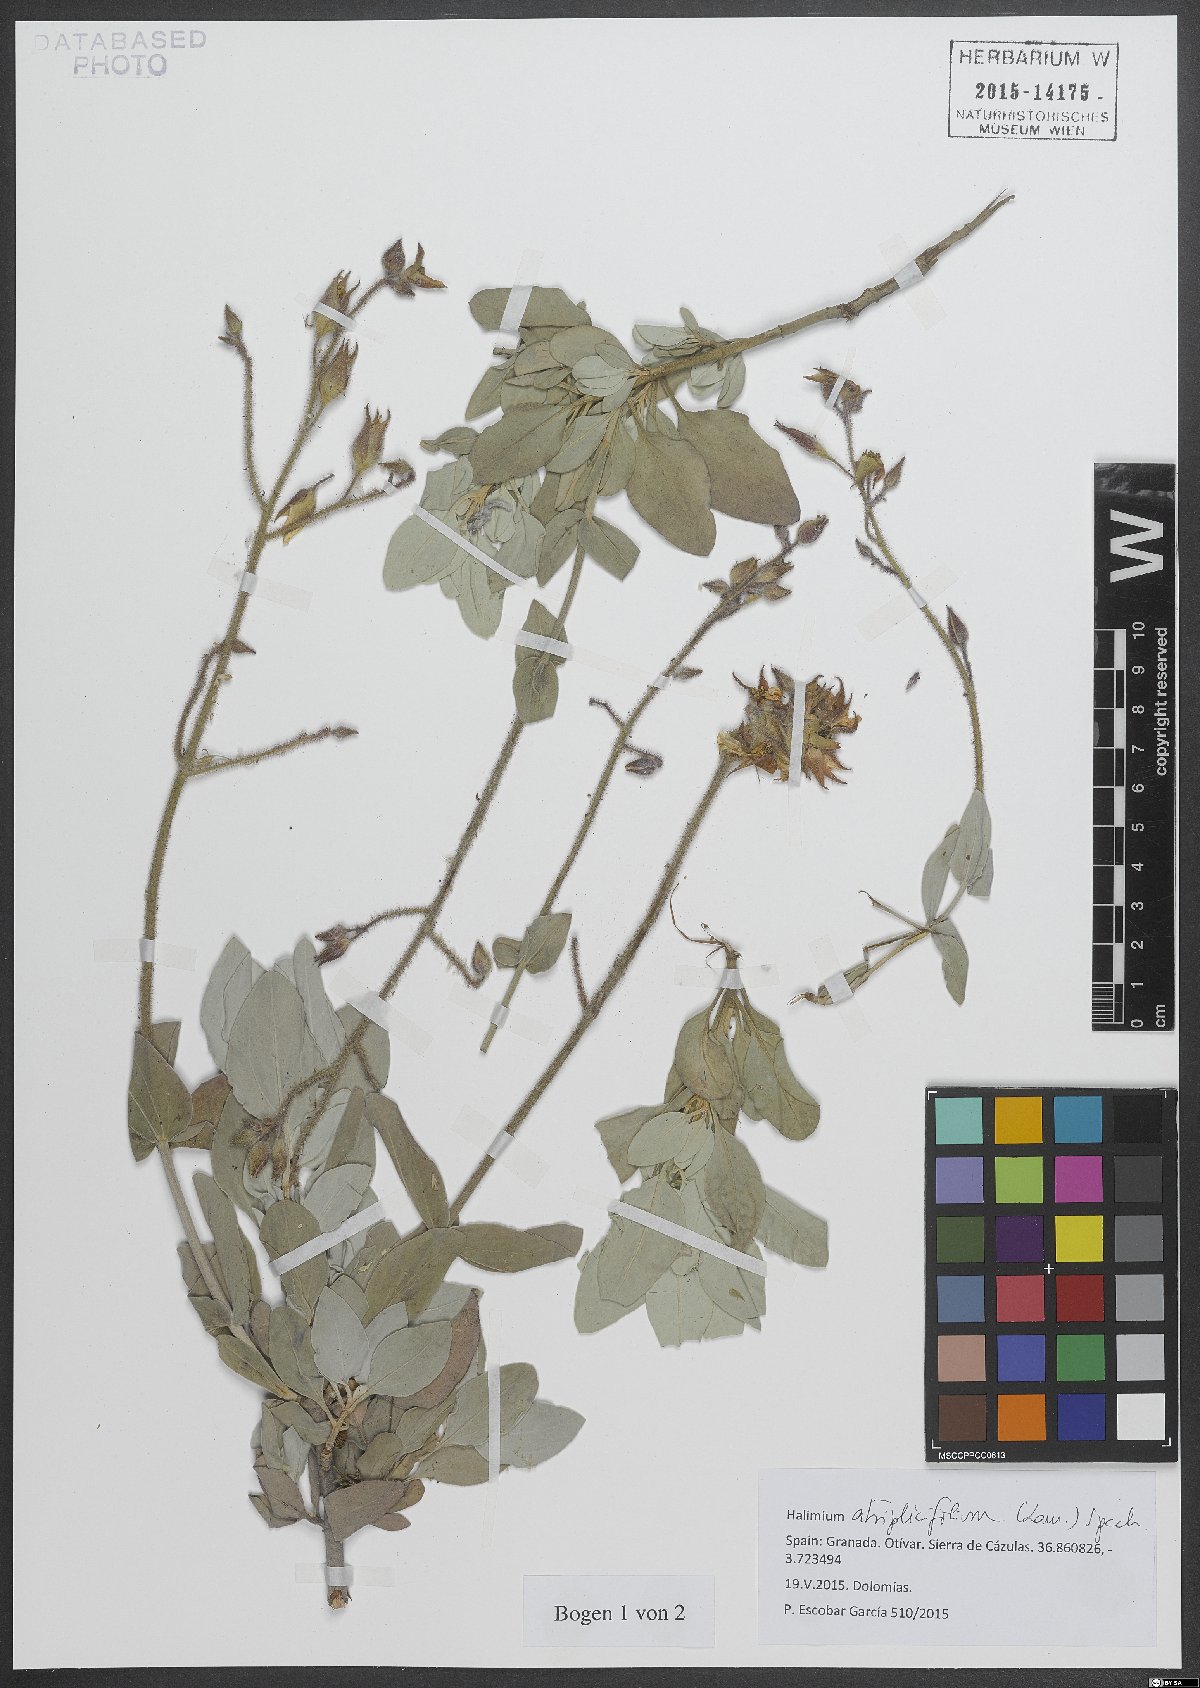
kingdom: Plantae
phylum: Tracheophyta
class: Magnoliopsida
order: Malvales
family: Cistaceae
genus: Halimium
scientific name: Halimium atriplicifolium
